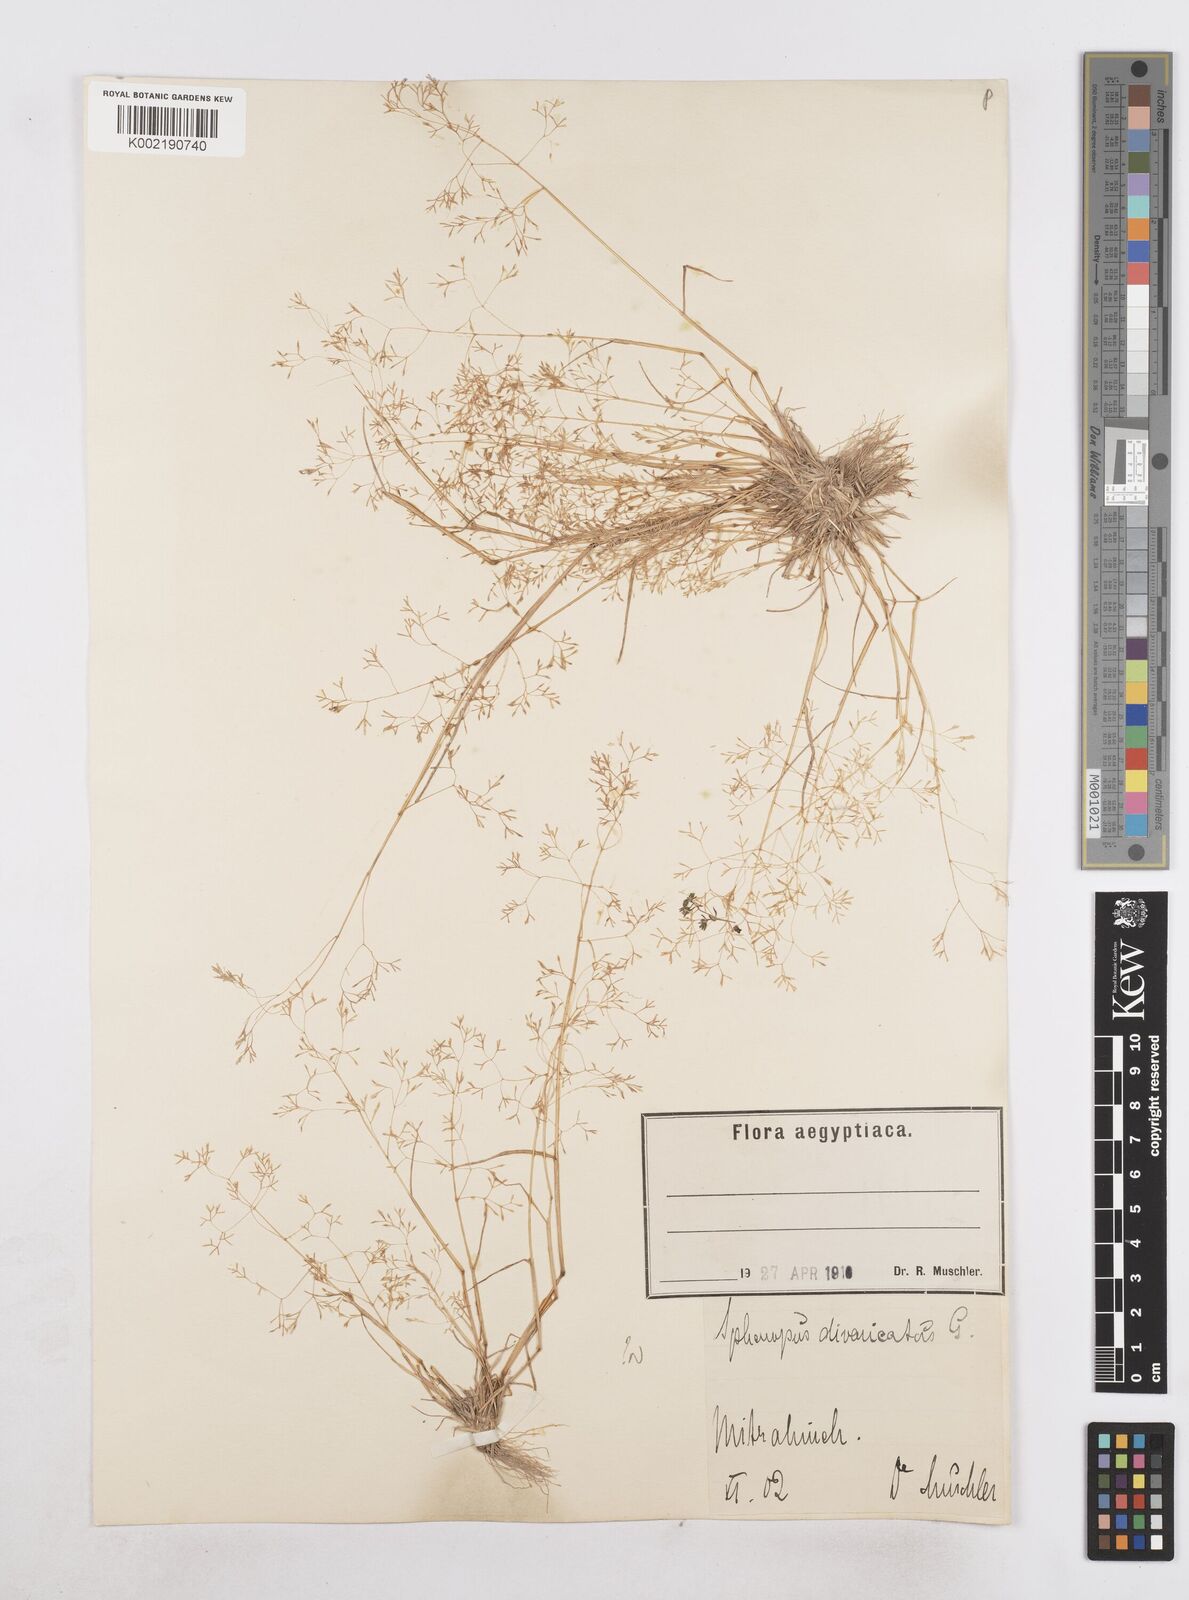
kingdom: Plantae
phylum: Tracheophyta
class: Liliopsida
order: Poales
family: Poaceae
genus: Sphenopus
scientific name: Sphenopus divaricatus
